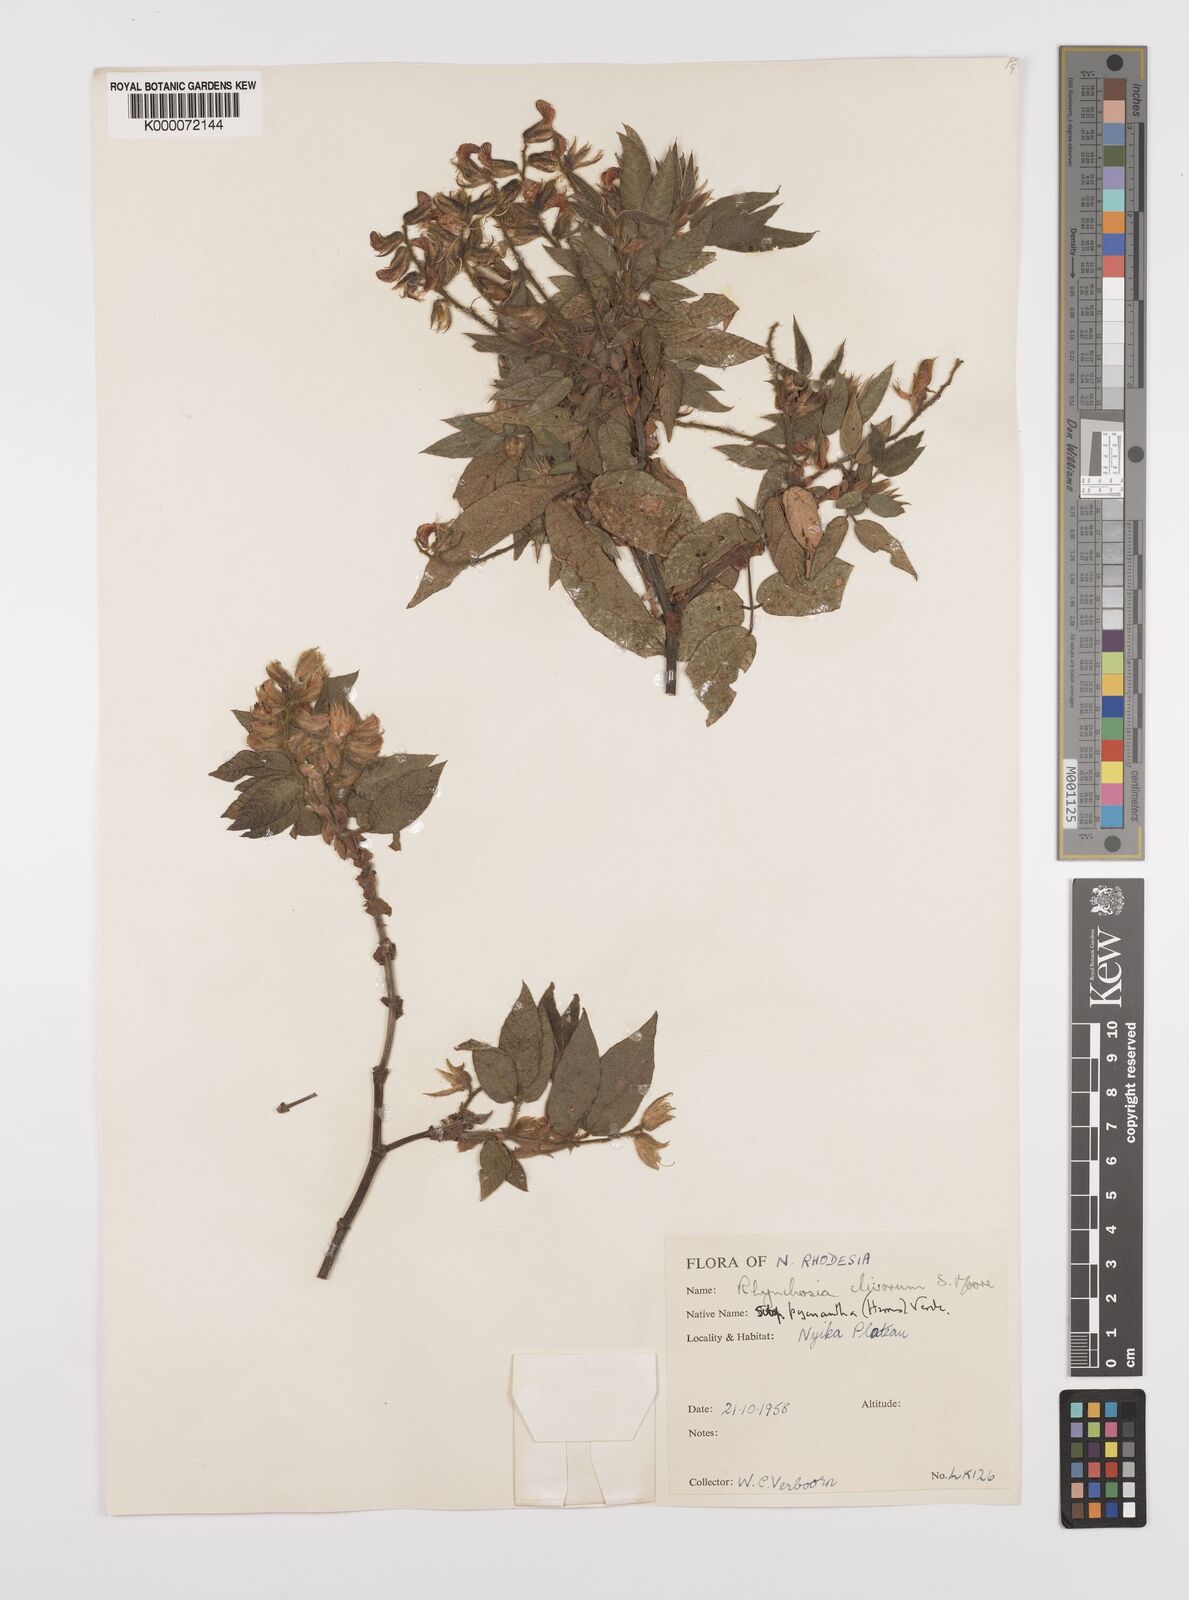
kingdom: Plantae
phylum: Tracheophyta
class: Magnoliopsida
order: Fabales
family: Fabaceae
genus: Rhynchosia
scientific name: Rhynchosia clivorum
